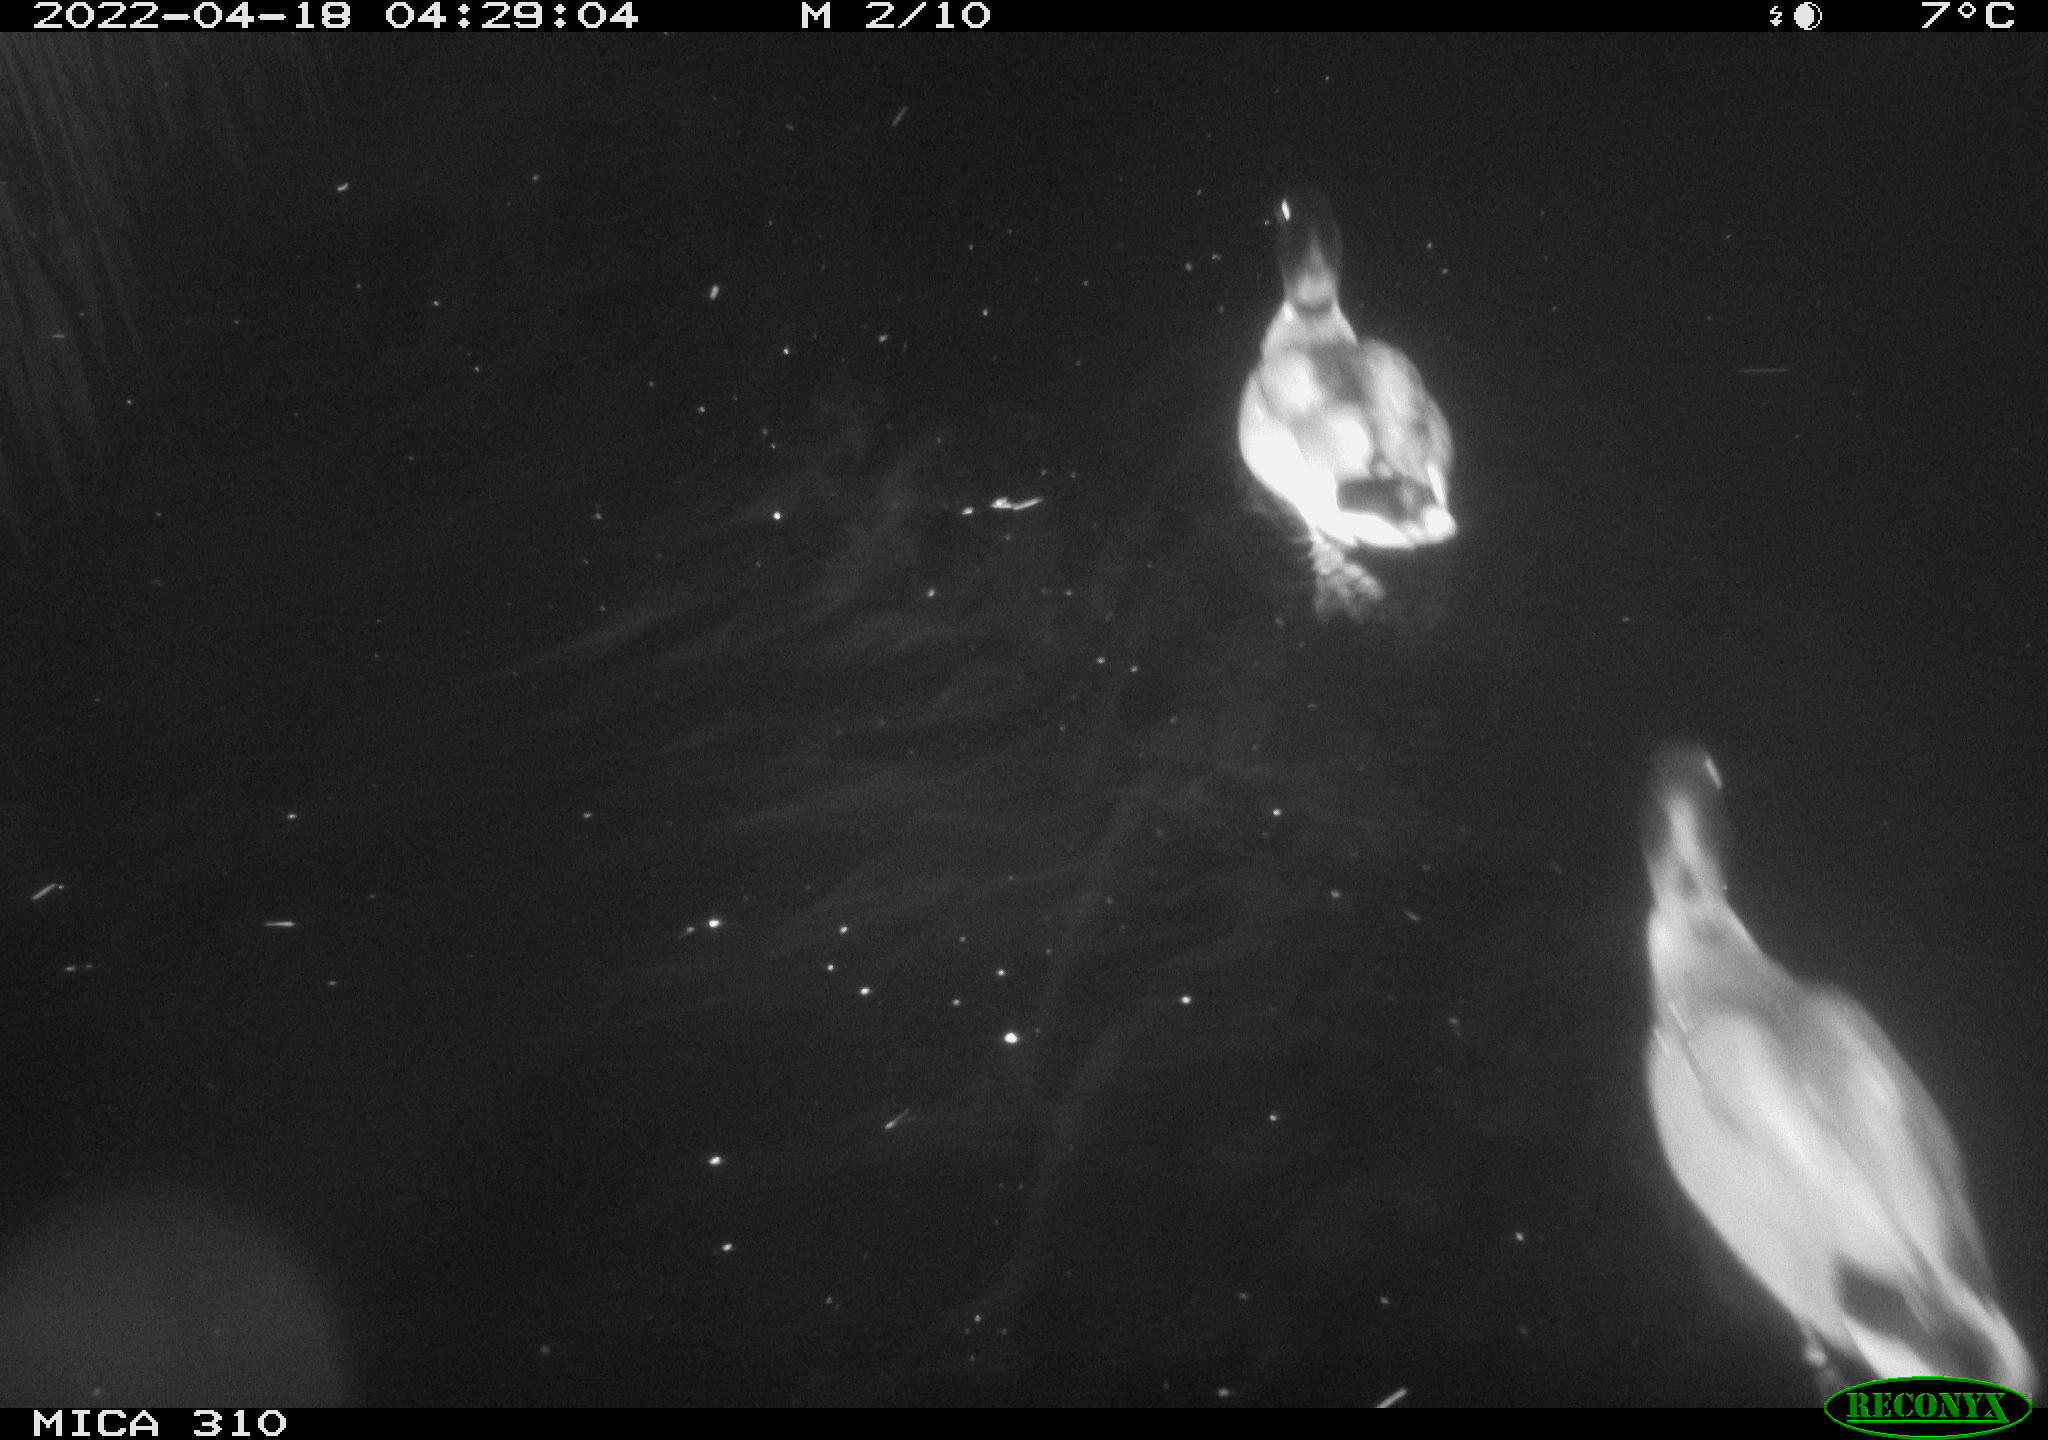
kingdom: Animalia
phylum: Chordata
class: Aves
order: Anseriformes
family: Anatidae
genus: Anas
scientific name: Anas platyrhynchos
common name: Mallard
